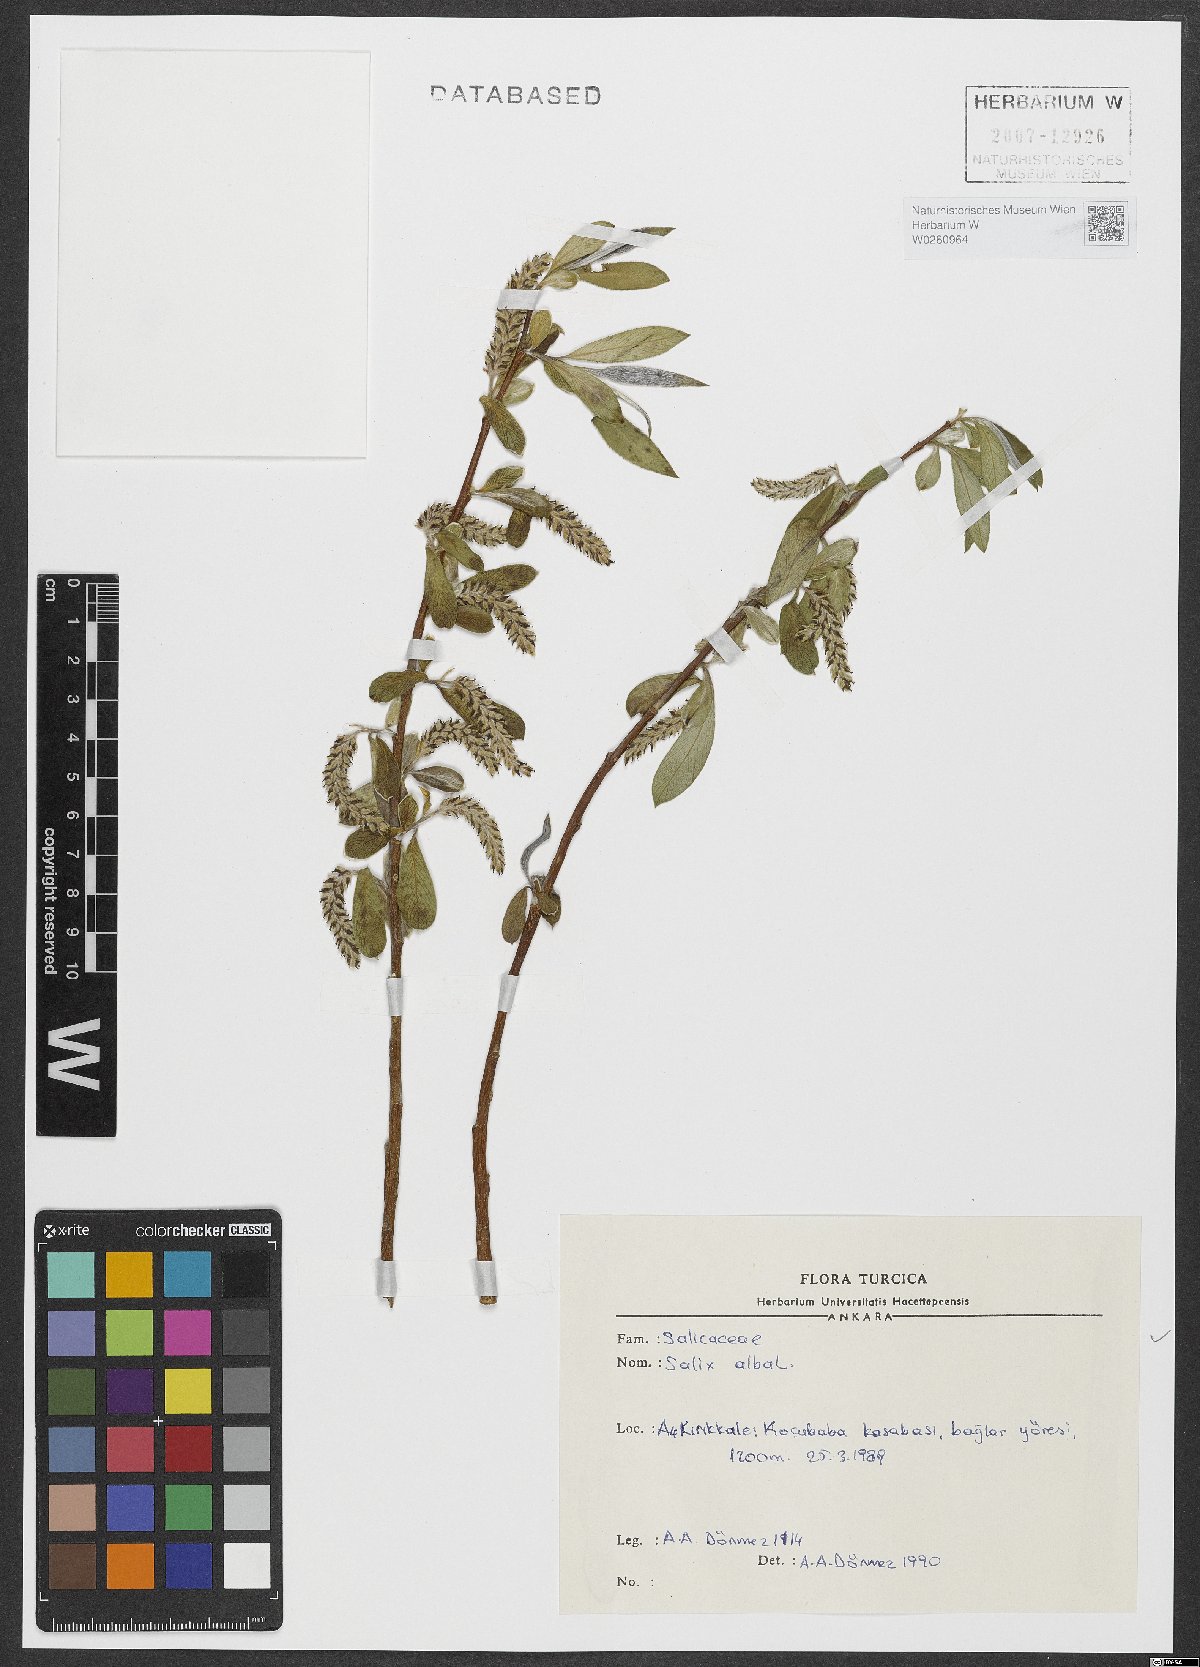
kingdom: Plantae
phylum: Tracheophyta
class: Magnoliopsida
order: Malpighiales
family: Salicaceae
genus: Salix
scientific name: Salix alba
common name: White willow
